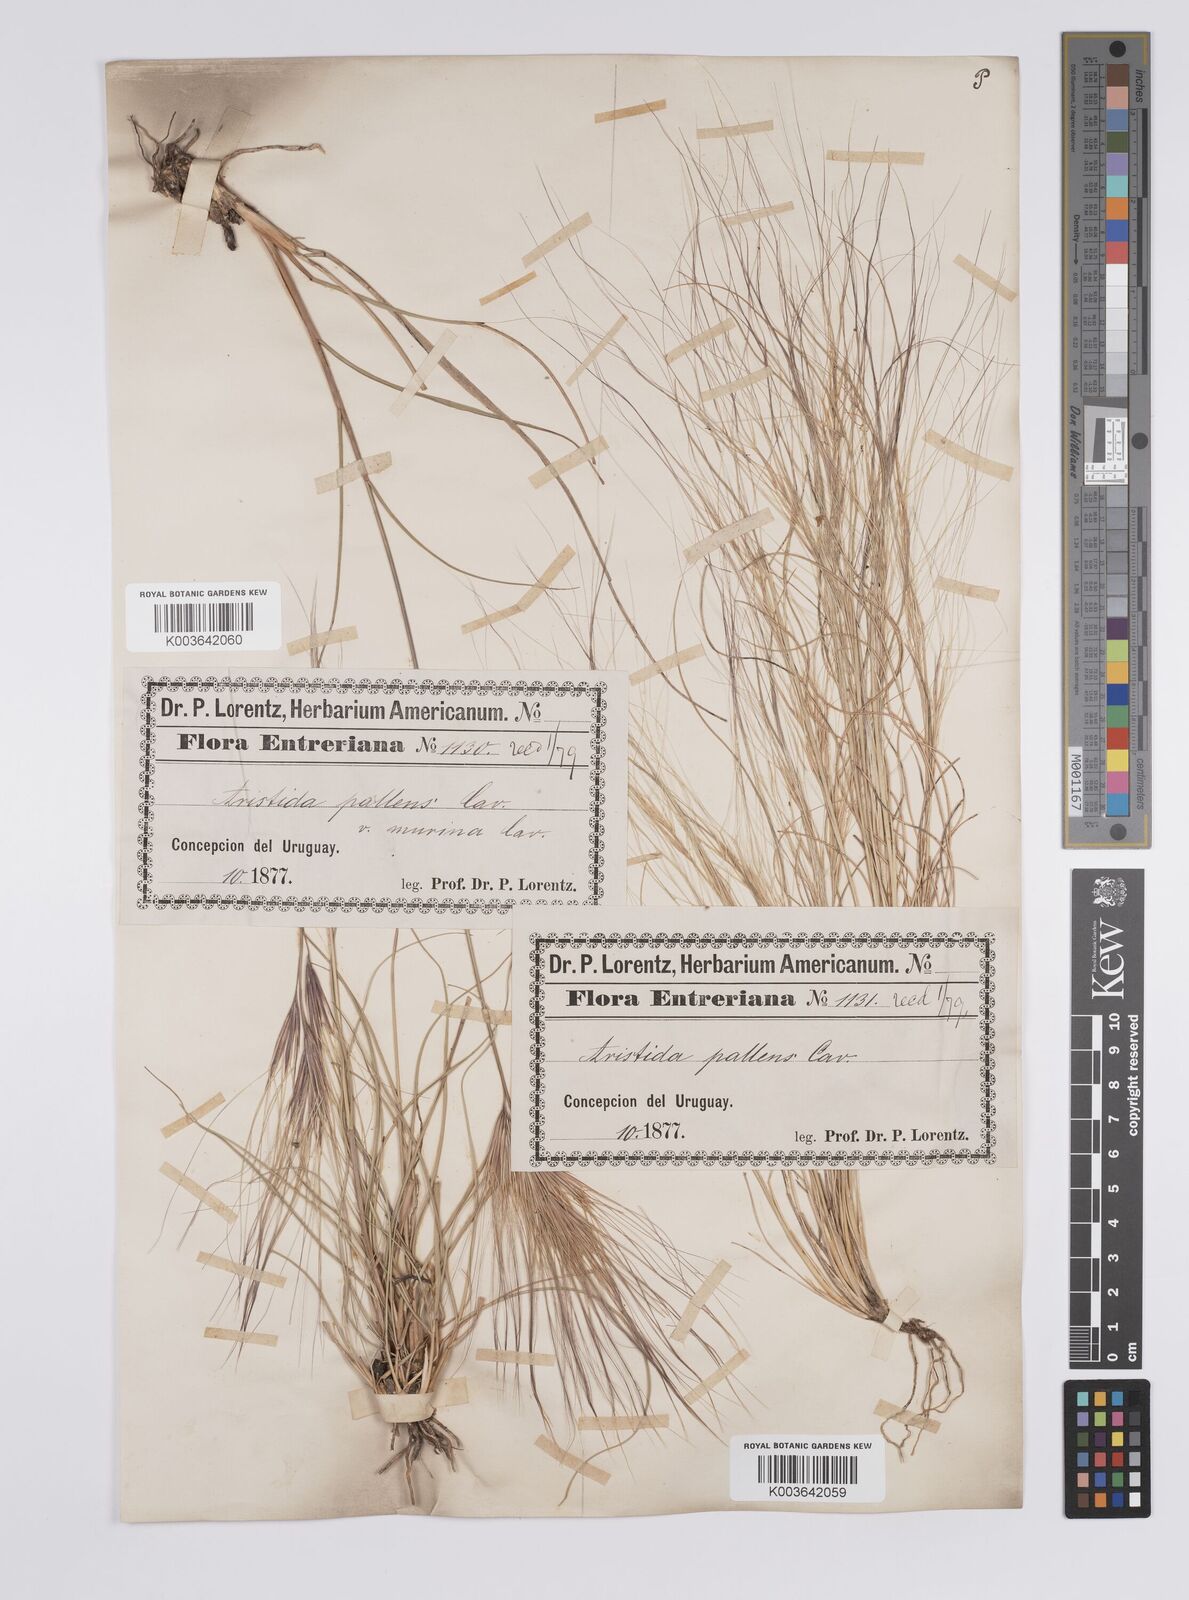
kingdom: Plantae
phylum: Tracheophyta
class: Liliopsida
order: Poales
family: Poaceae
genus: Aristida
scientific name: Aristida pallens
